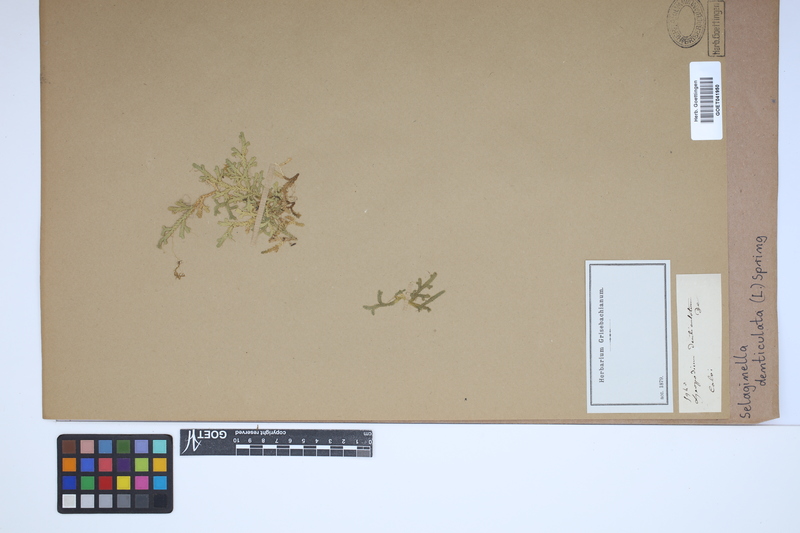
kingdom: Plantae
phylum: Tracheophyta
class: Lycopodiopsida
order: Selaginellales
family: Selaginellaceae
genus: Selaginella
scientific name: Selaginella denticulata
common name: Toothed-leaved clubmoss
